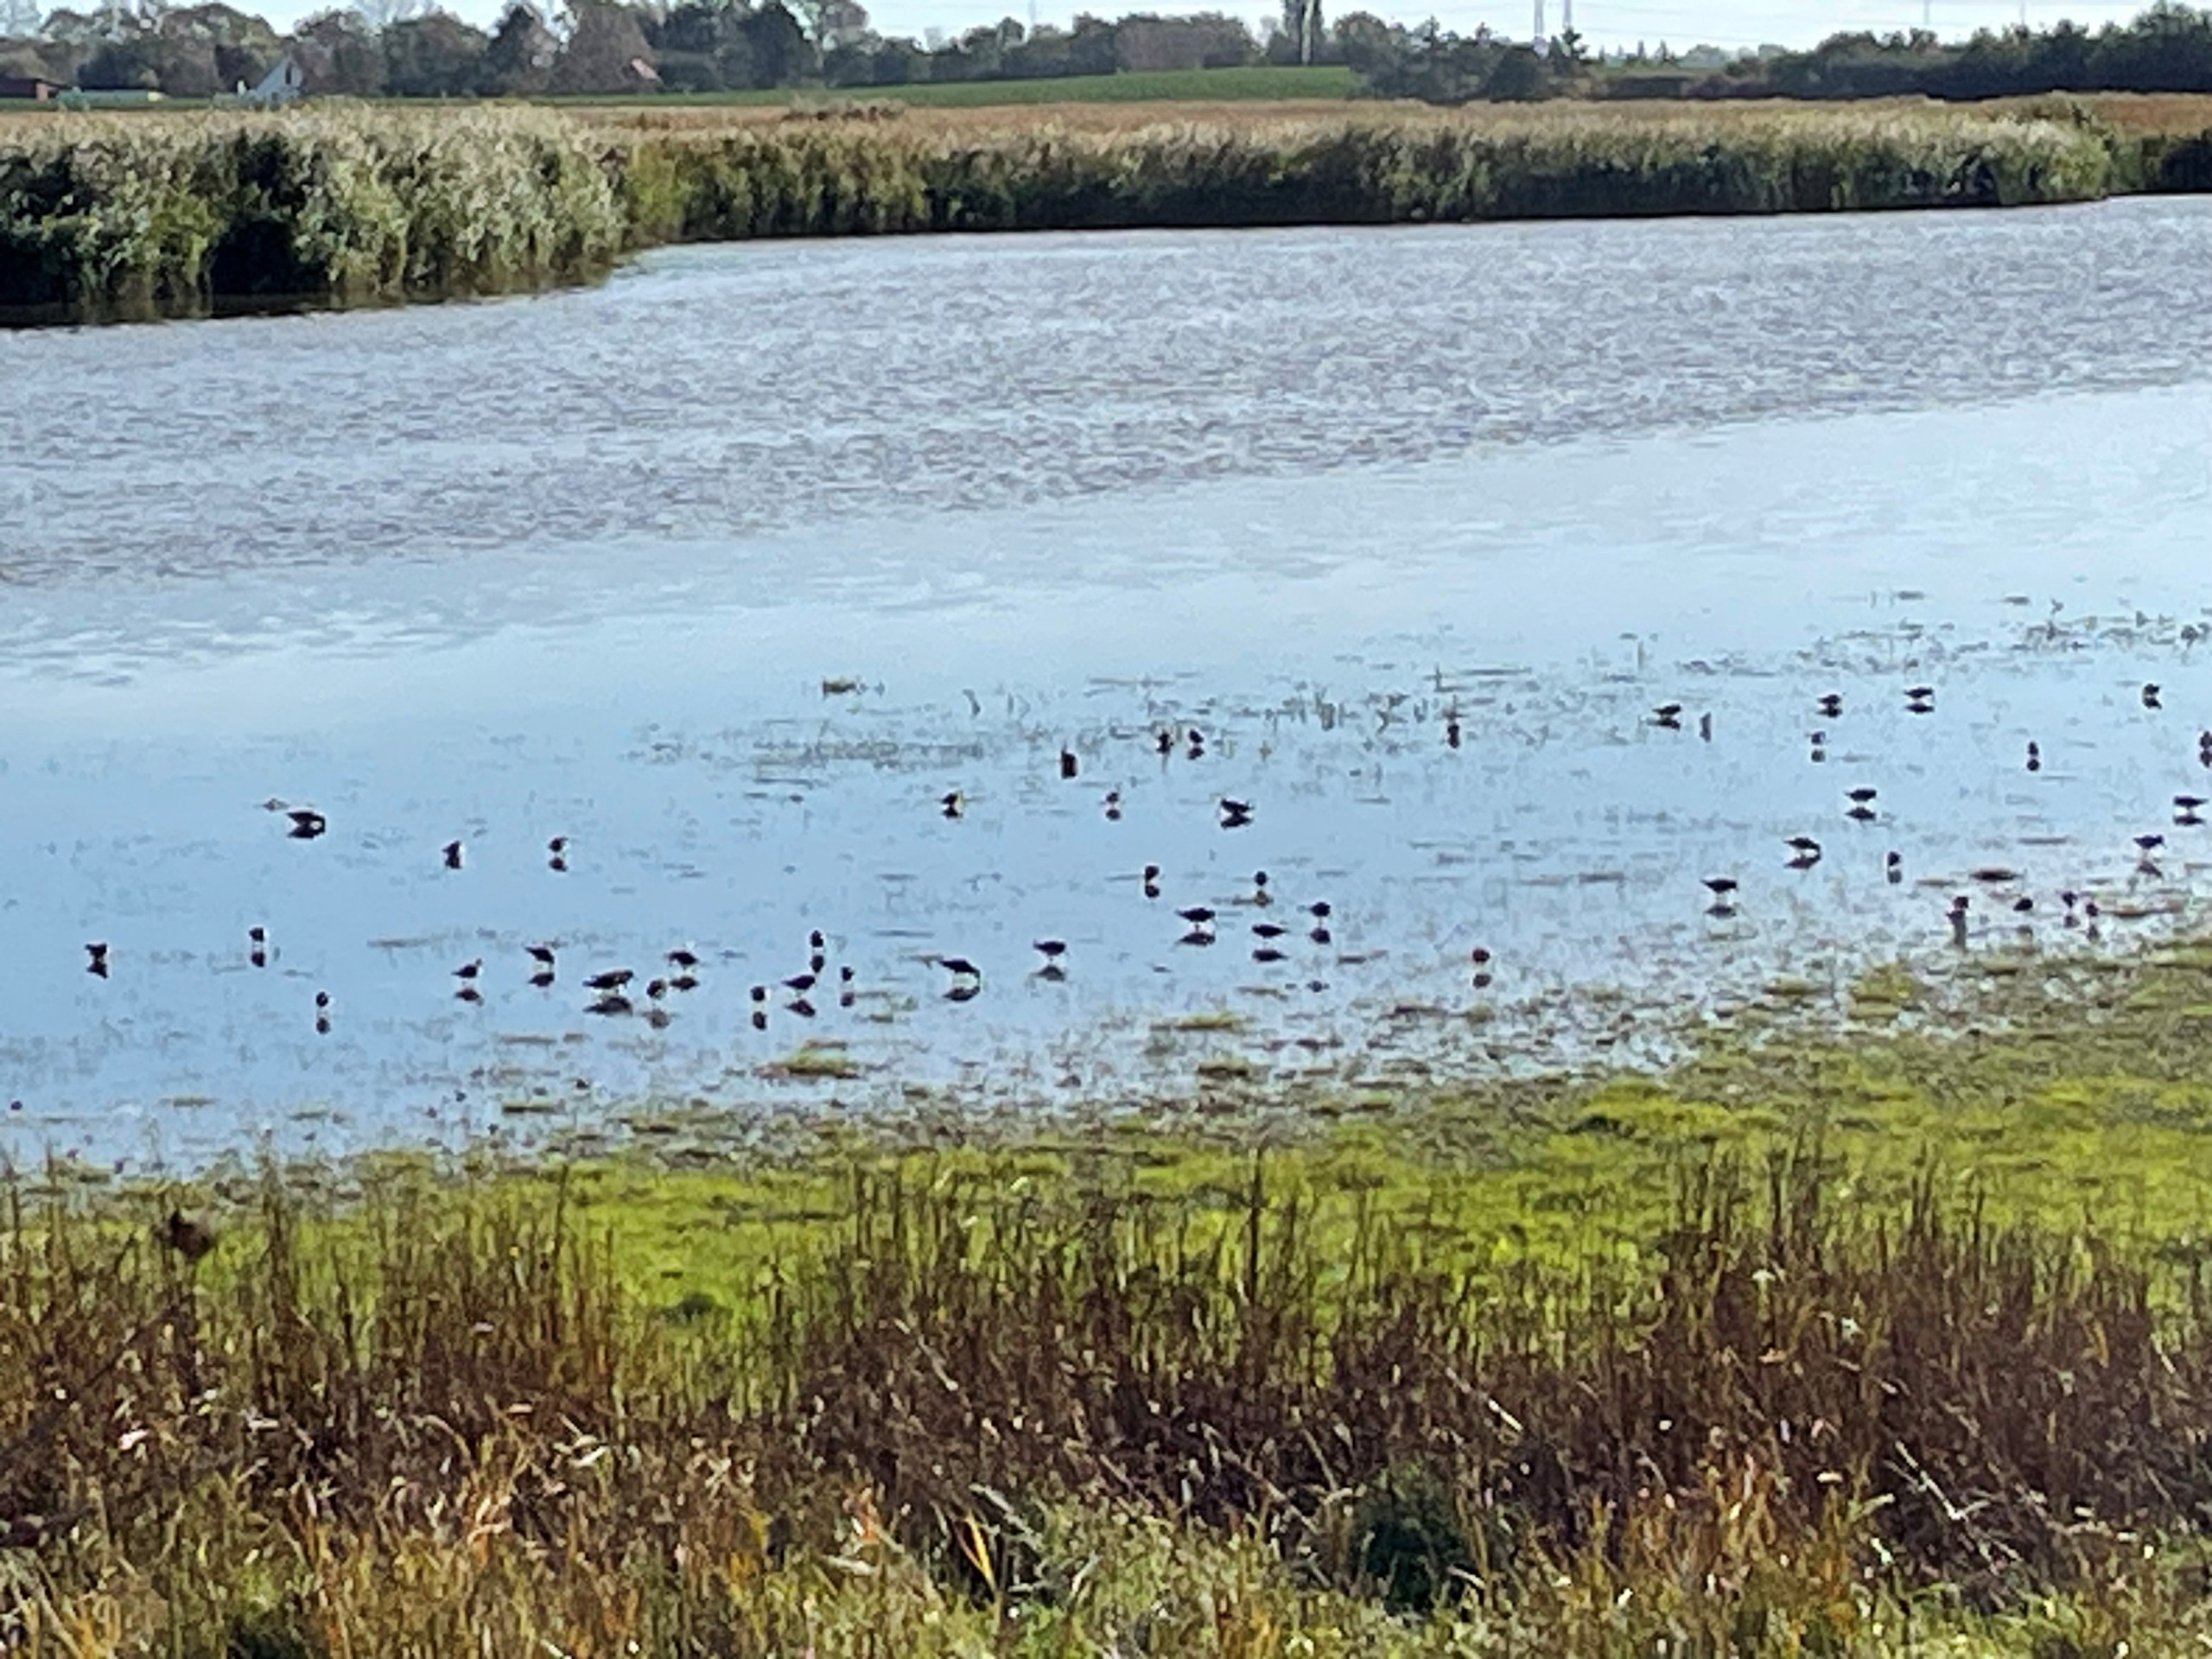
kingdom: Animalia
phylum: Chordata
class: Aves
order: Charadriiformes
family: Scolopacidae
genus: Calidris
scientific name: Calidris alpina
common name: Almindelig ryle
